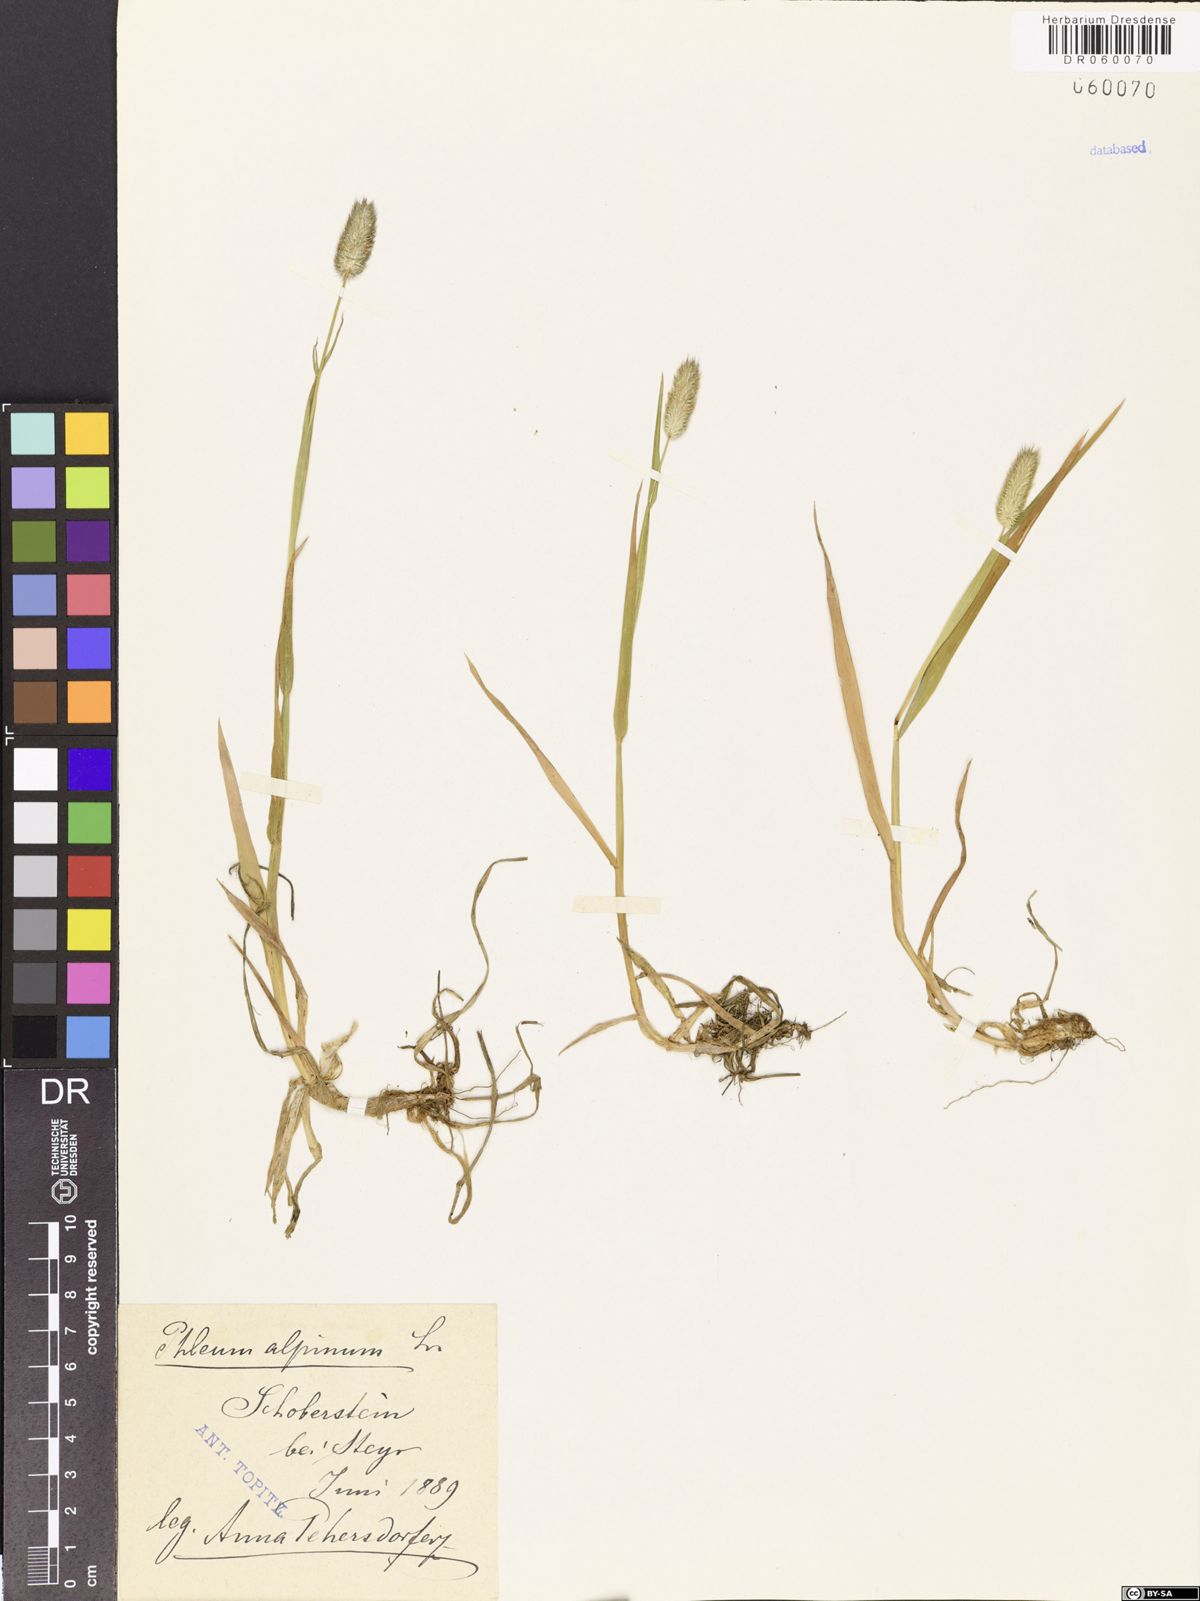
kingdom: Plantae
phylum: Tracheophyta
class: Liliopsida
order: Poales
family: Poaceae
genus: Phleum
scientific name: Phleum alpinum
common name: Alpine cat's-tail
